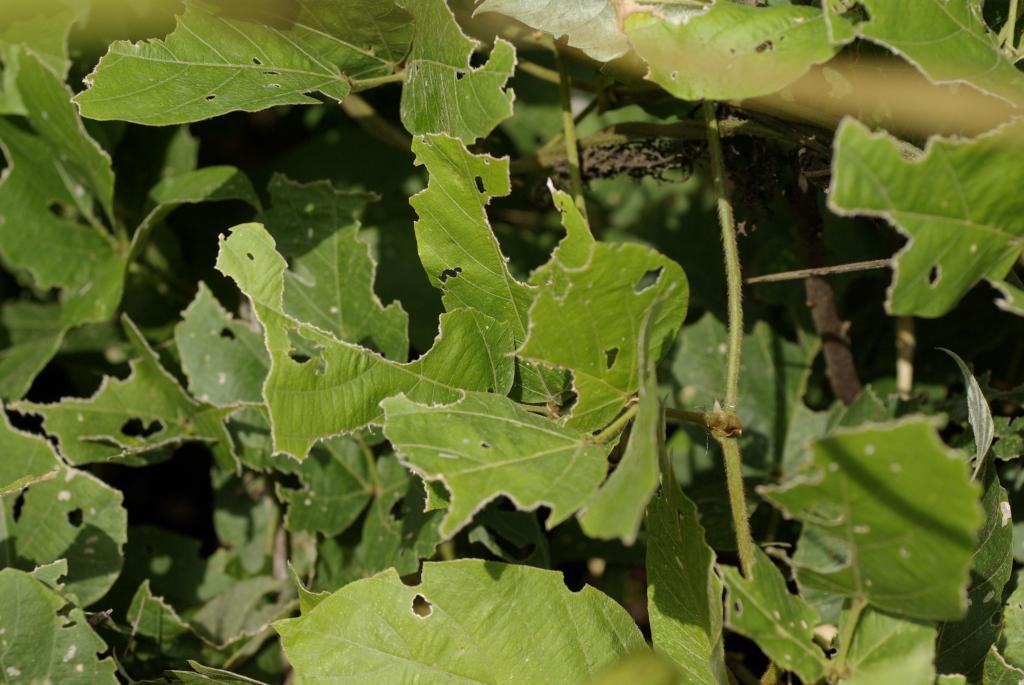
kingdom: Plantae
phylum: Tracheophyta
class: Magnoliopsida
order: Fabales
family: Fabaceae
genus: Pueraria
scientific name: Pueraria montana
